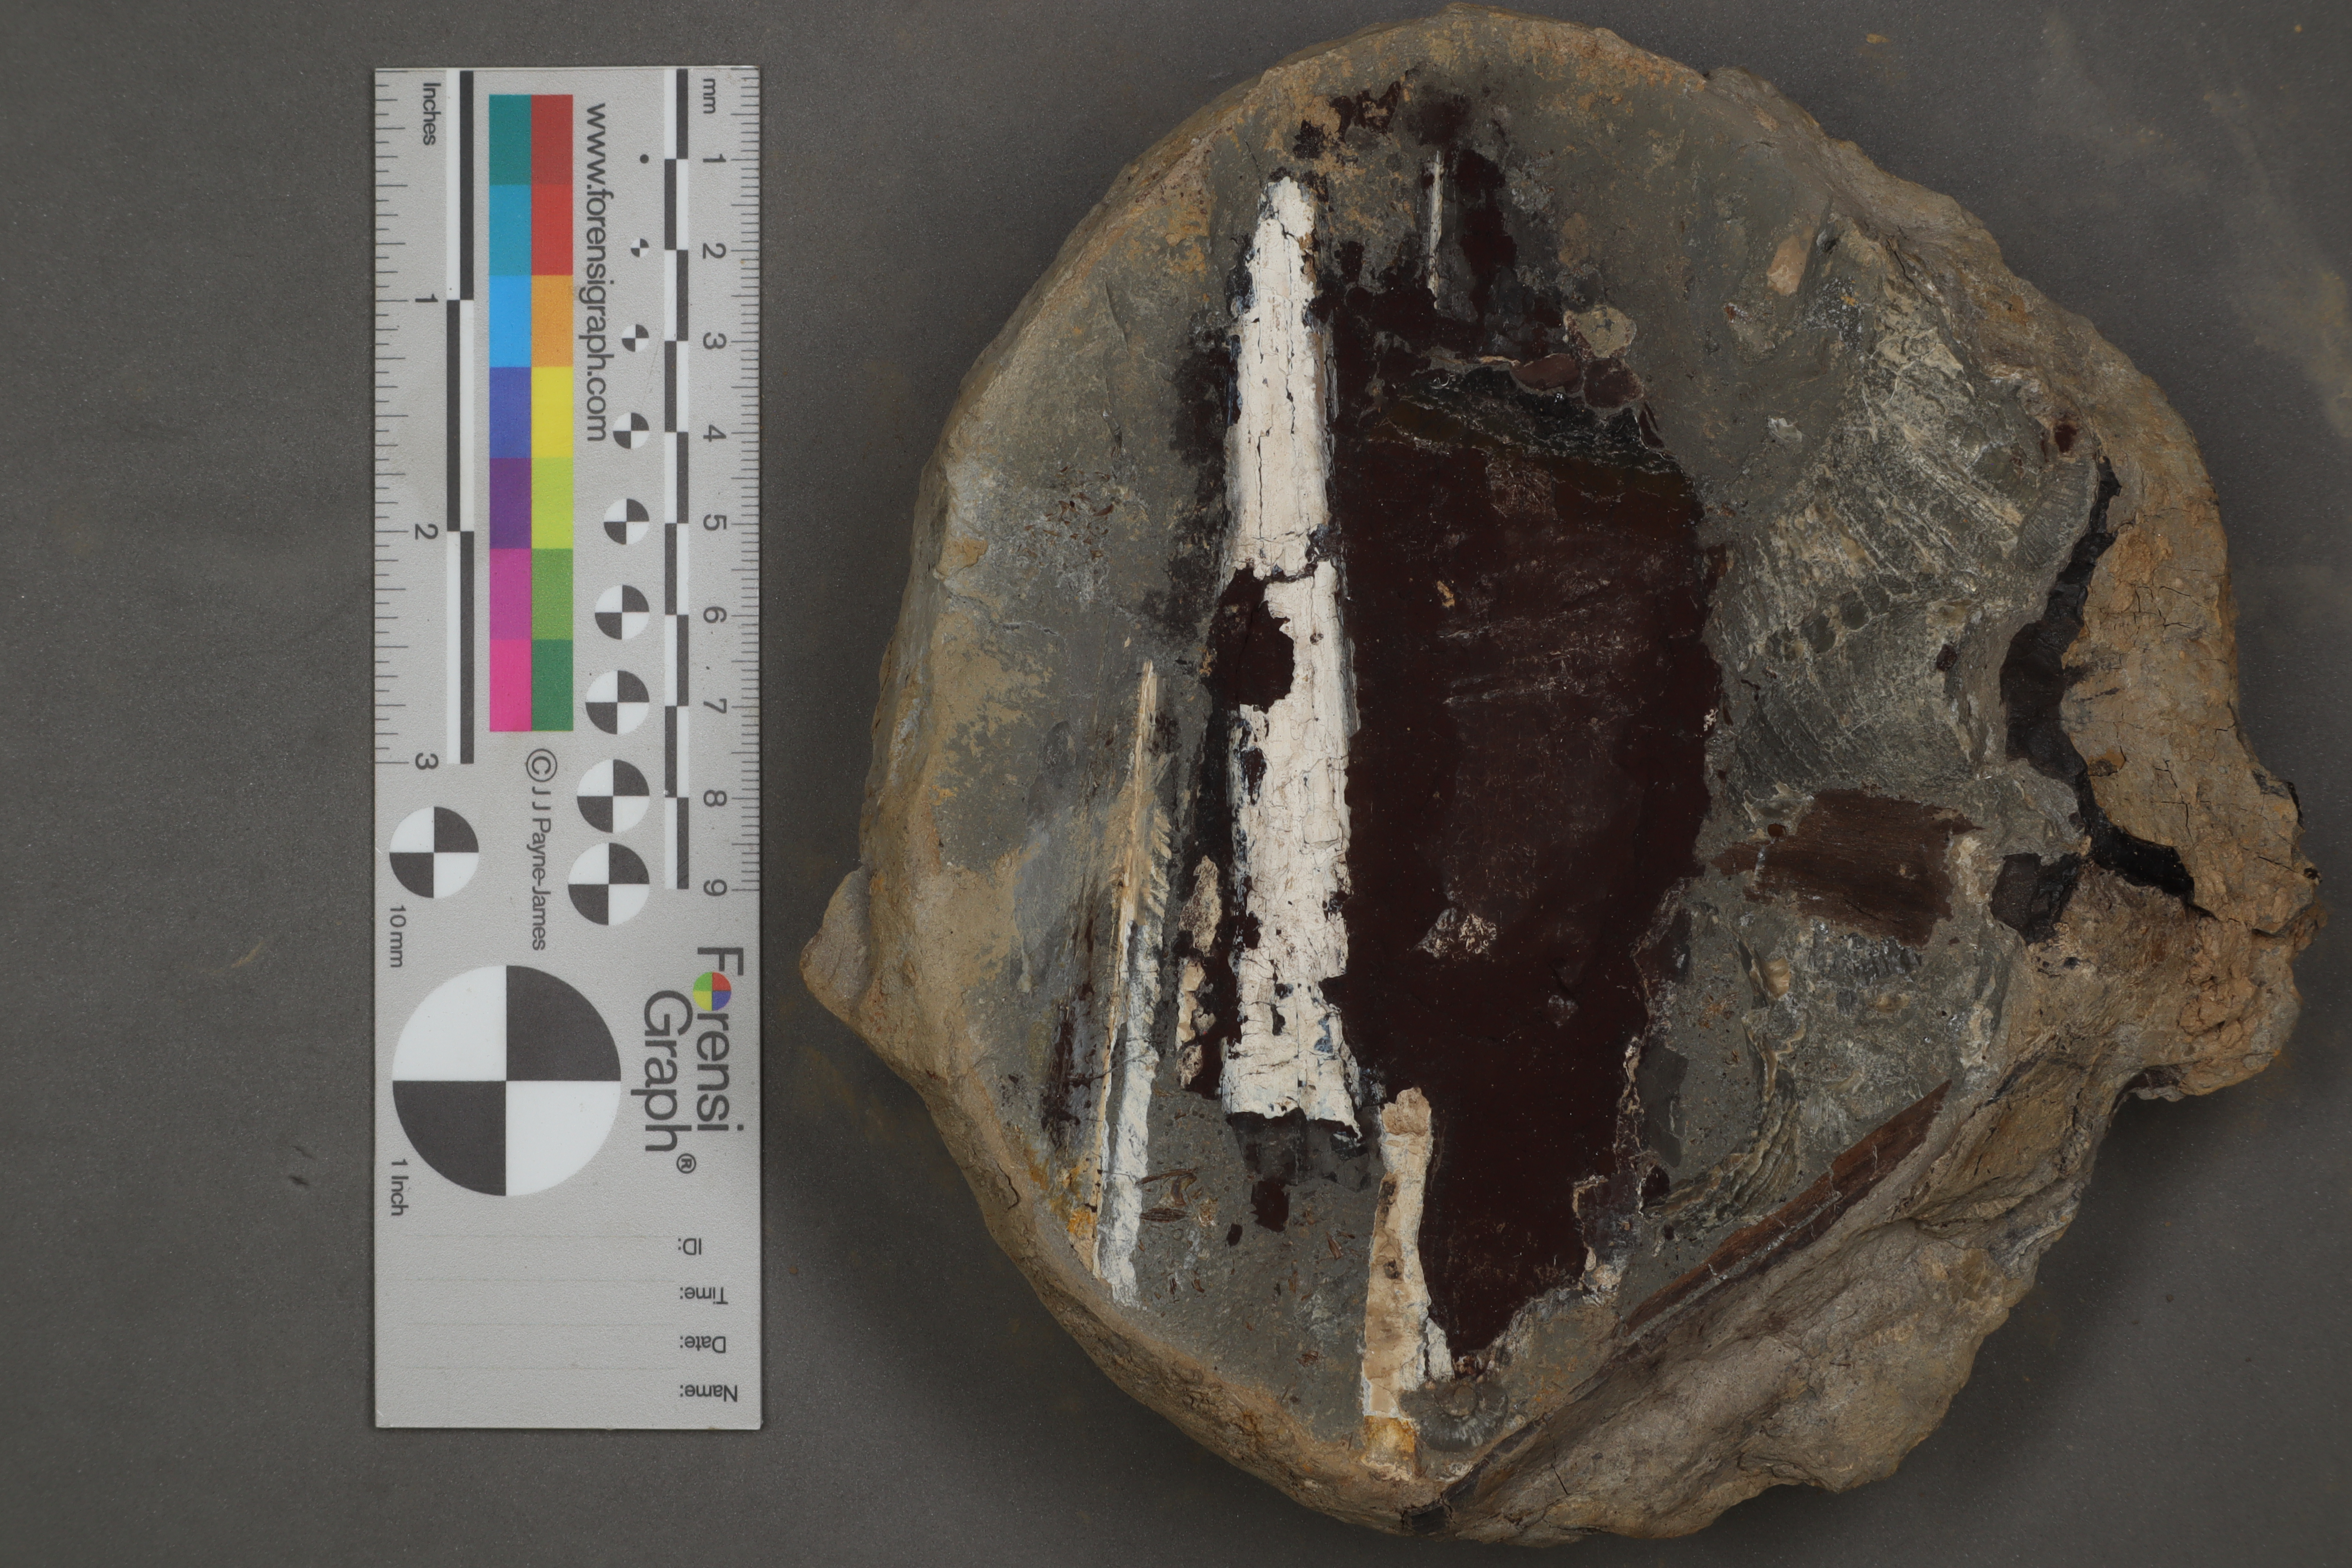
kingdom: Animalia
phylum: Mollusca
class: Cephalopoda
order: Vampyromorpha
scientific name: Vampyromorpha
